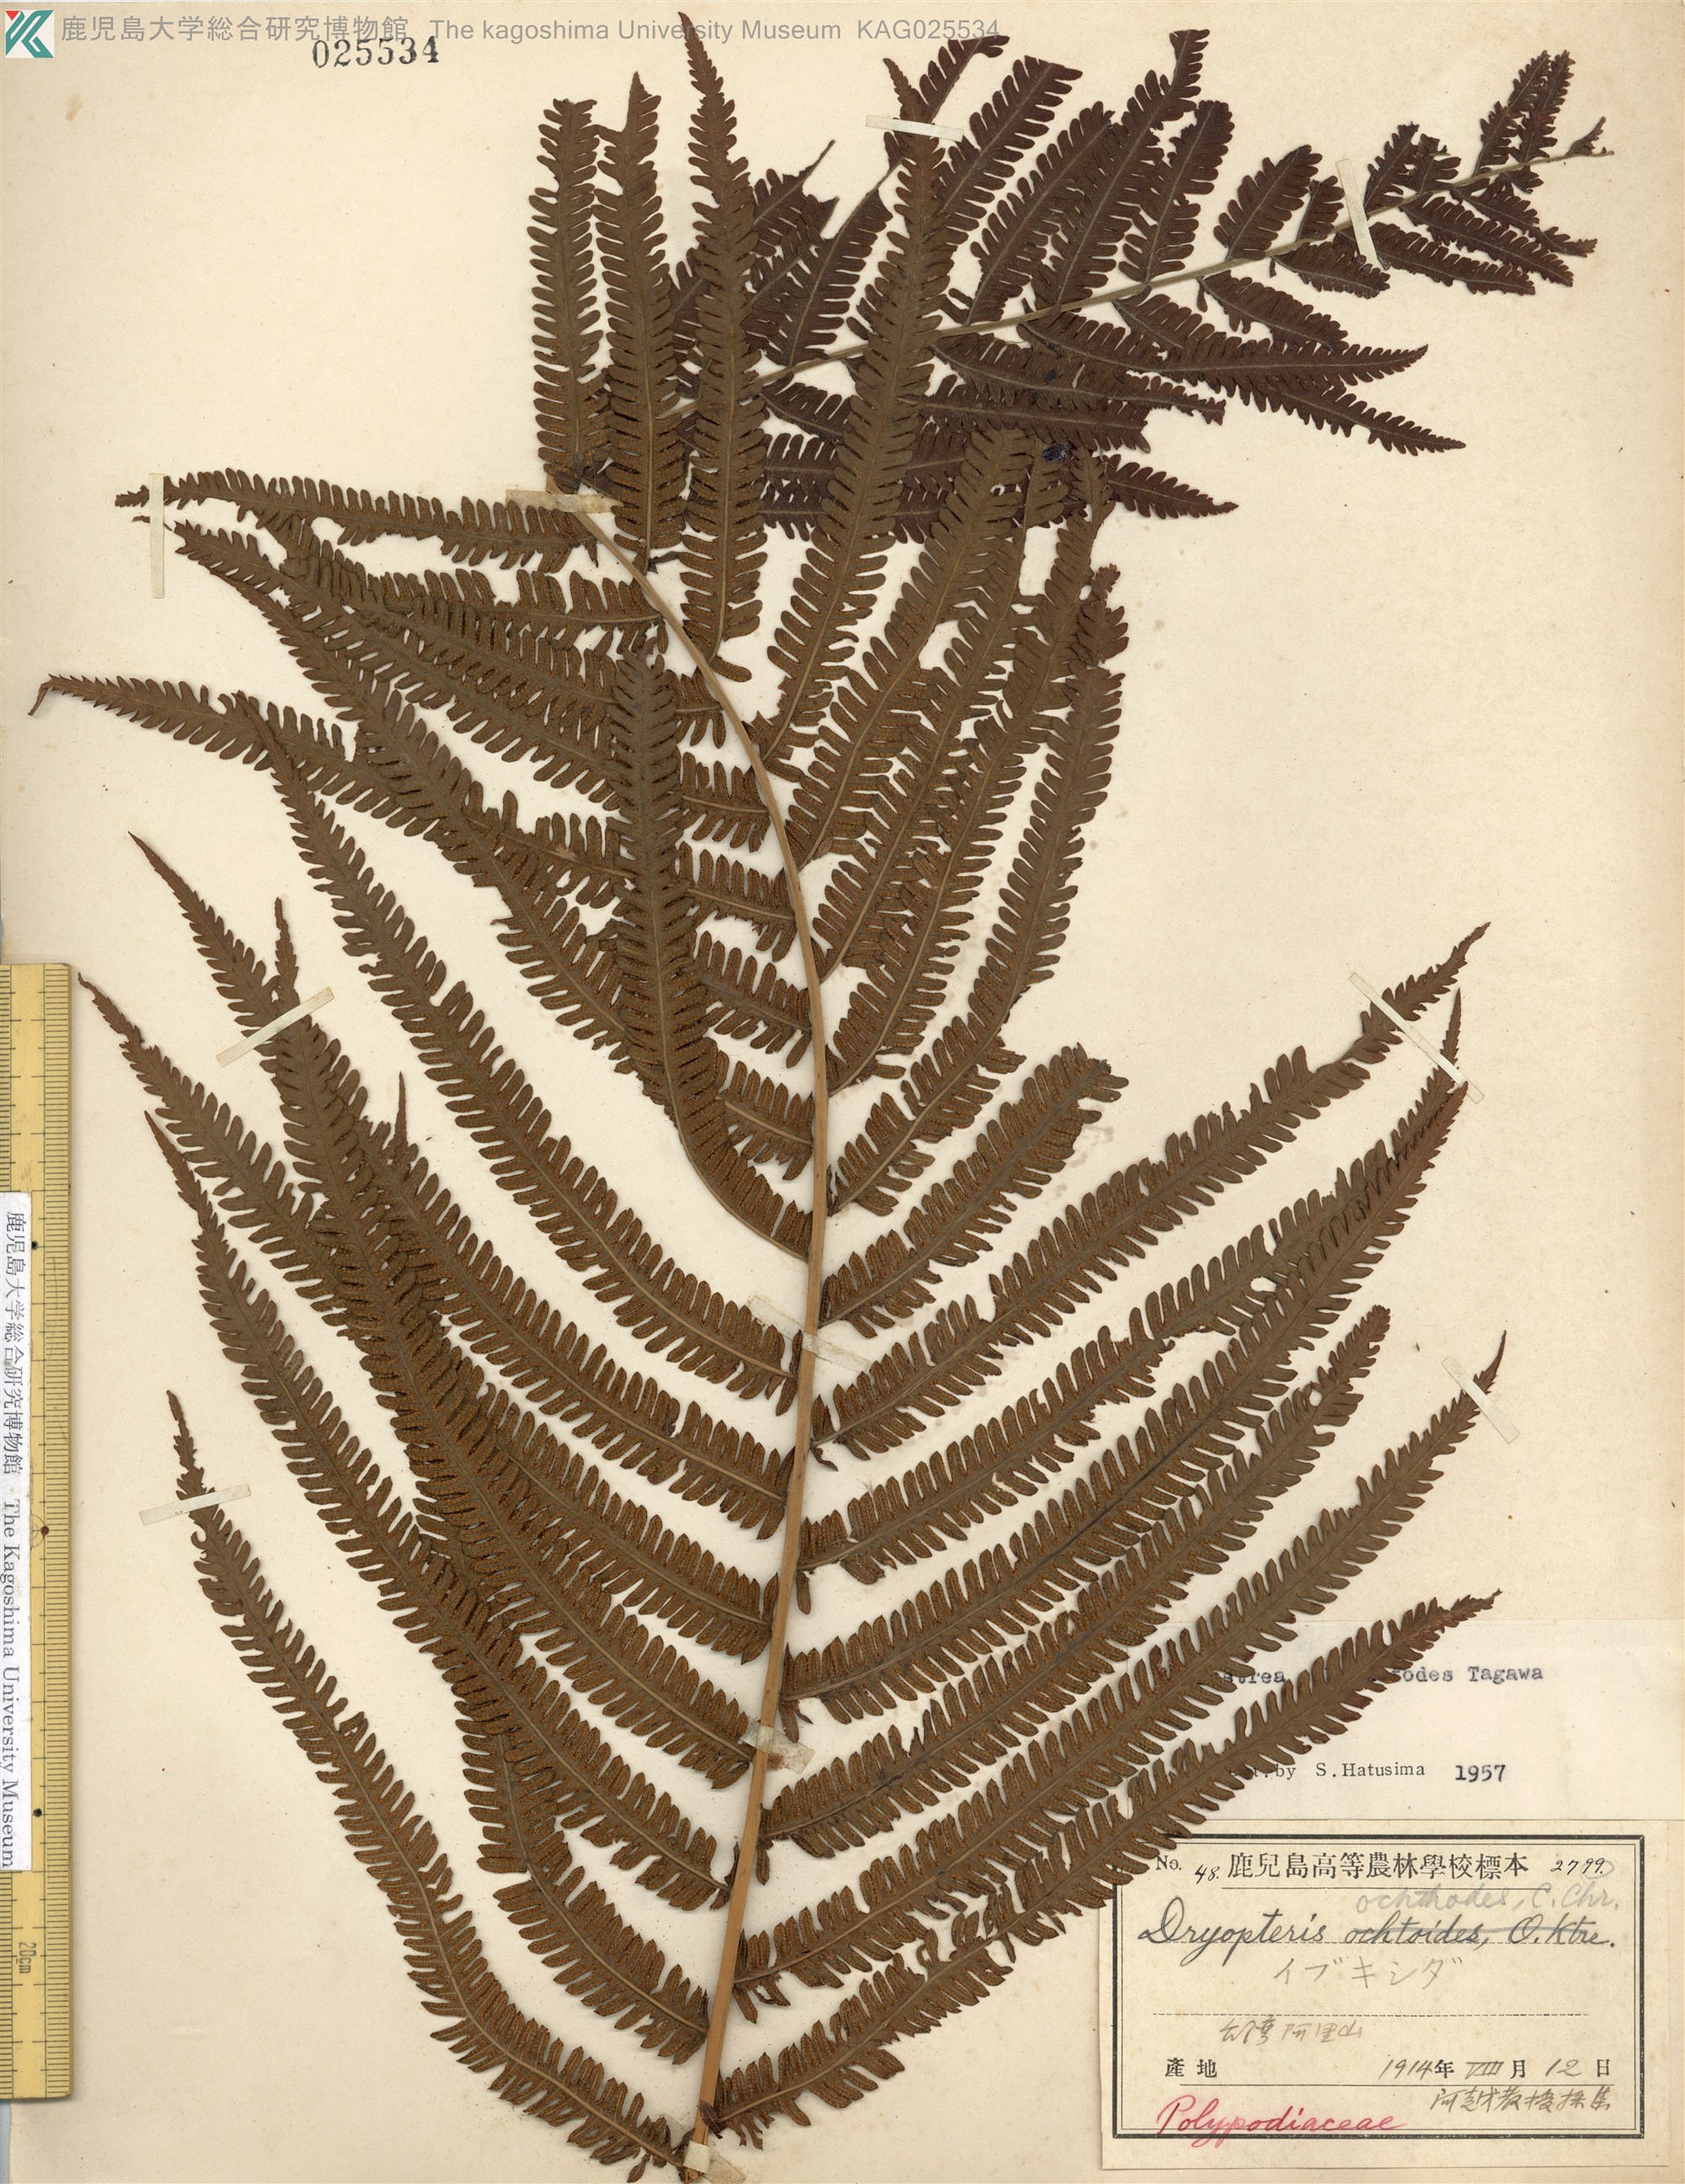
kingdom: Plantae
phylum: Tracheophyta
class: Polypodiopsida
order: Polypodiales
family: Thelypteridaceae
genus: Pseudocyclosorus
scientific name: Pseudocyclosorus esquirolii
